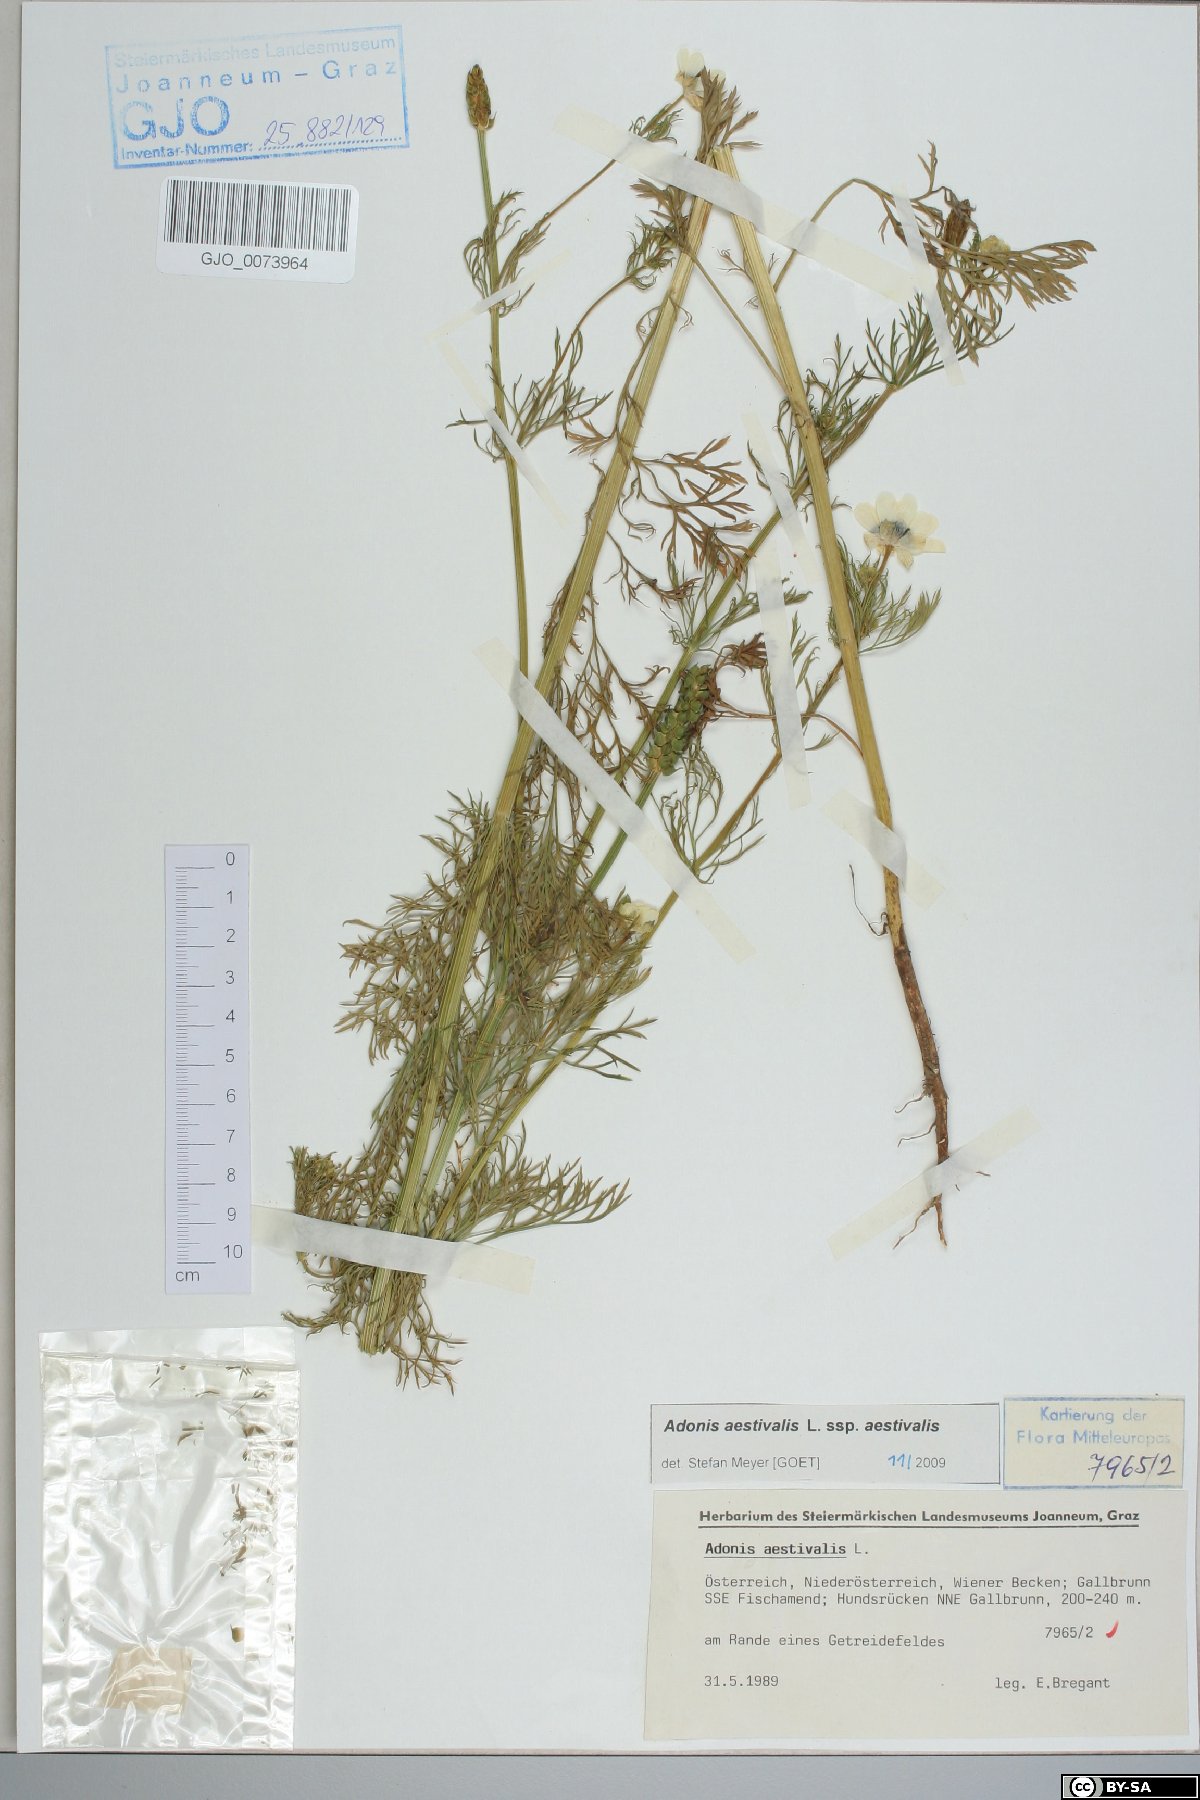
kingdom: Plantae
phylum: Tracheophyta
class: Magnoliopsida
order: Ranunculales
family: Ranunculaceae
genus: Adonis
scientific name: Adonis aestivalis
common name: Summer pheasant's-eye
